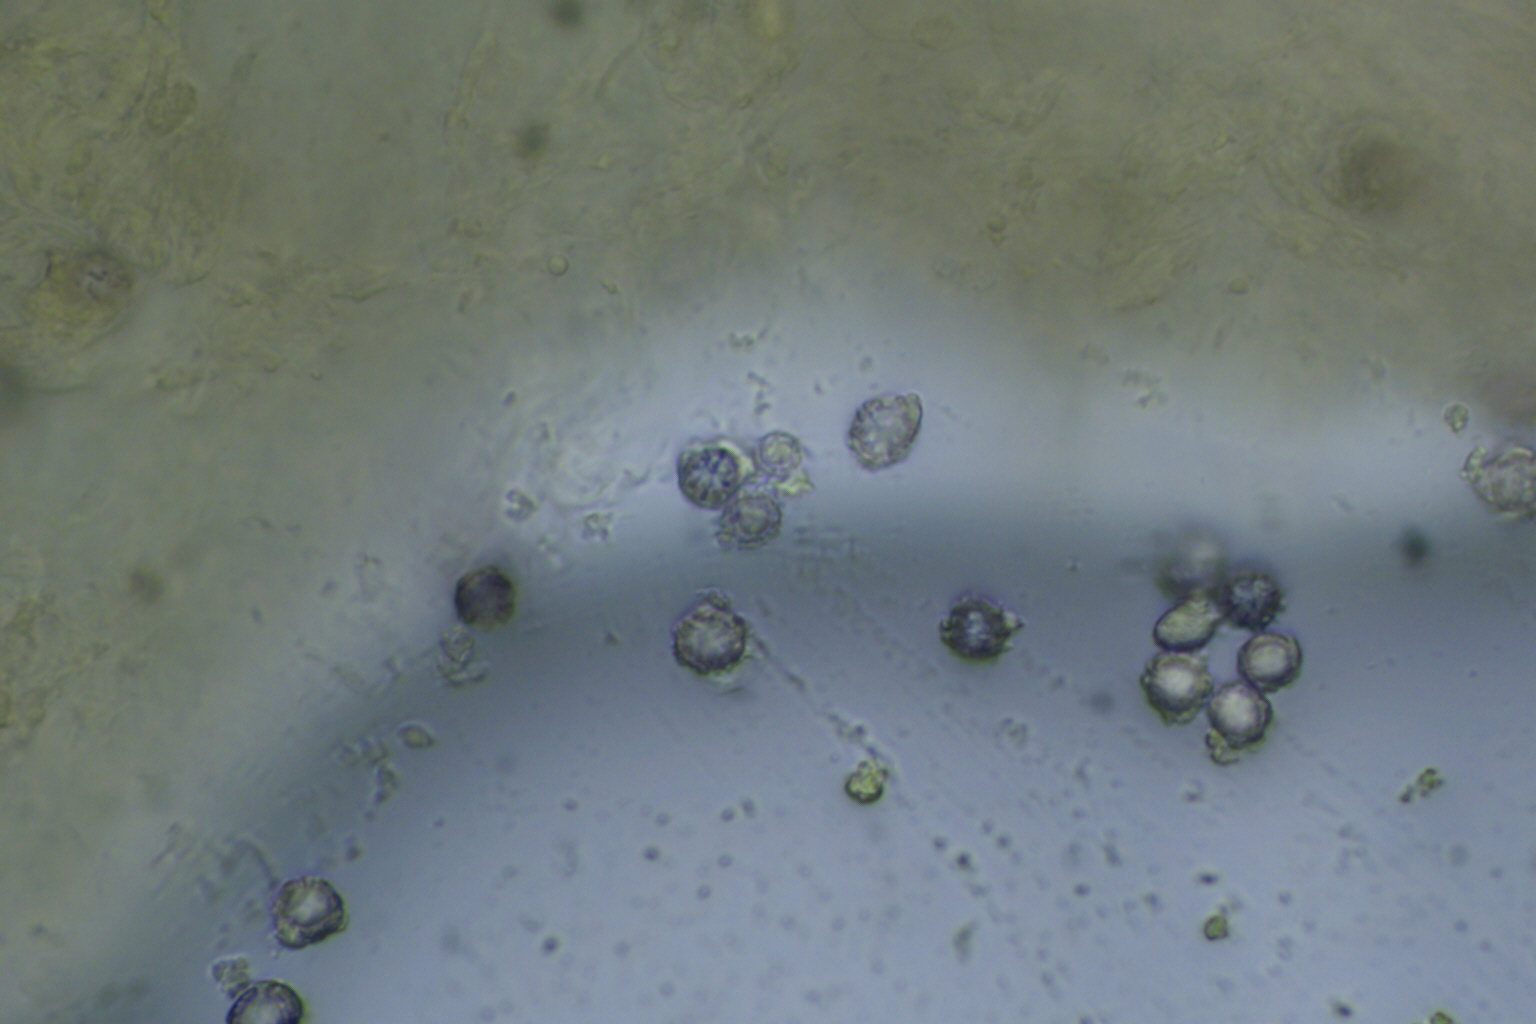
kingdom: Fungi
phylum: Basidiomycota
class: Agaricomycetes
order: Russulales
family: Russulaceae
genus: Russula
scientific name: Russula recondita
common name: mild kam-skørhat
